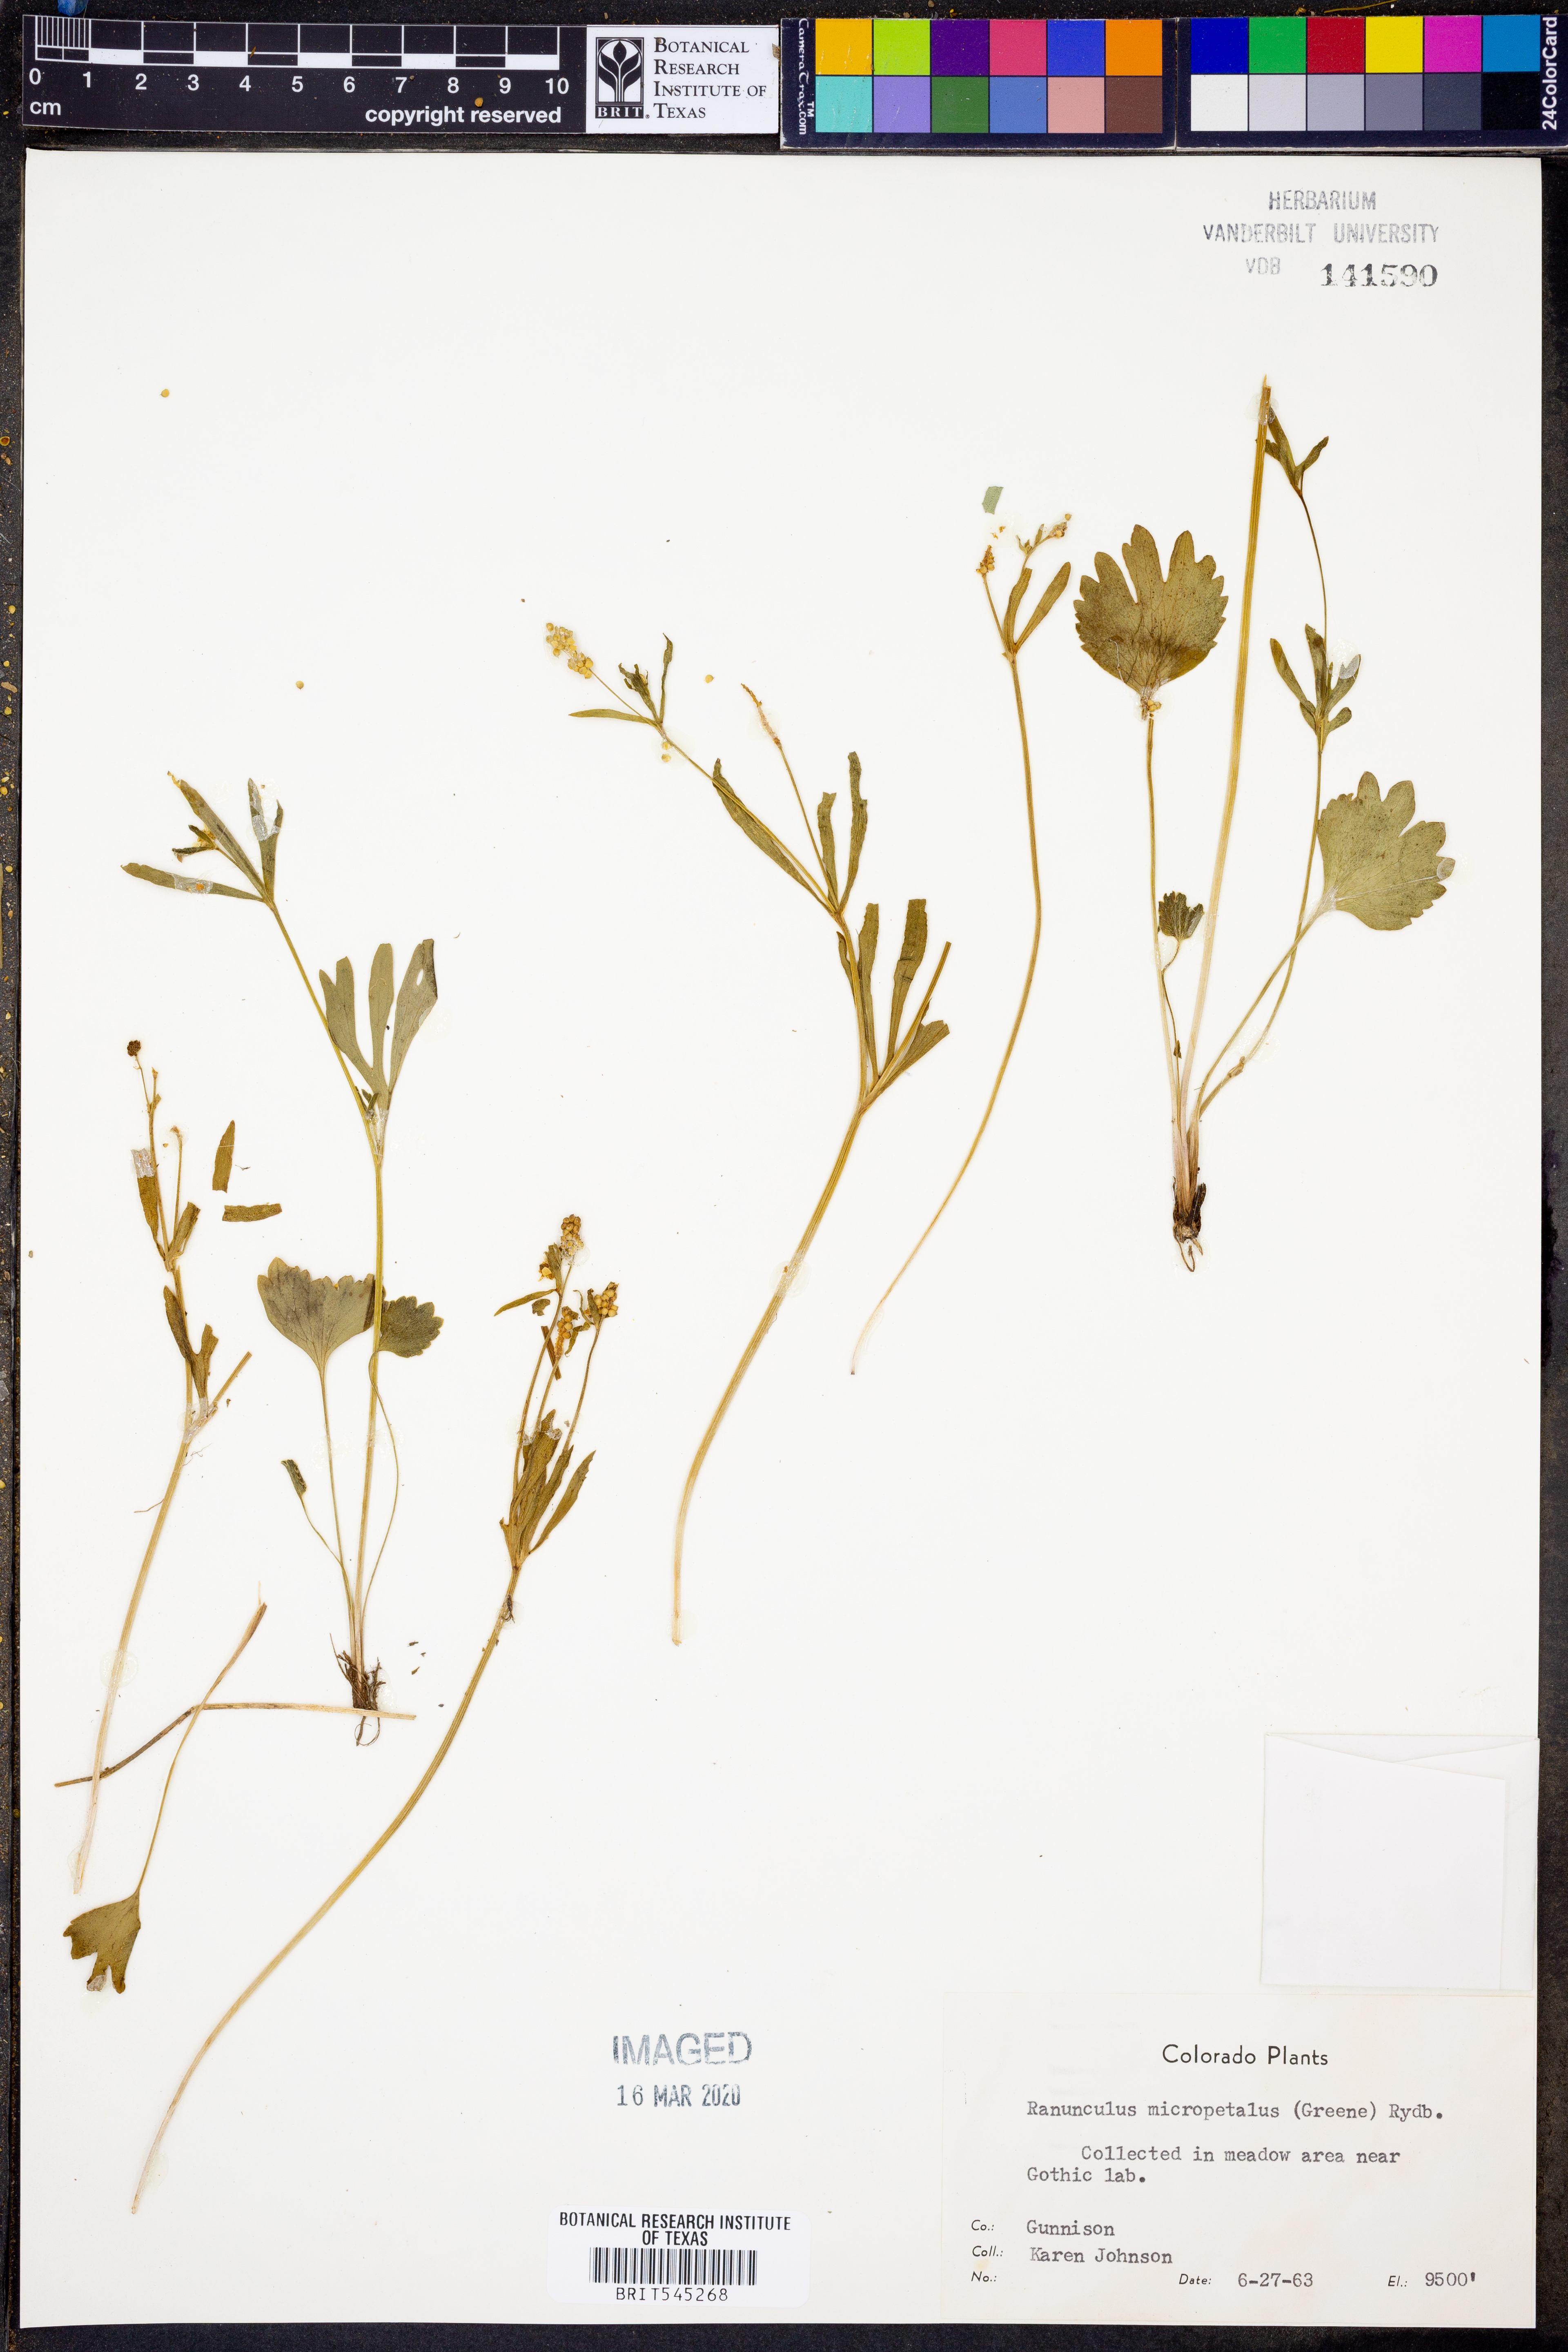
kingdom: Plantae
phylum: Tracheophyta
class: Magnoliopsida
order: Ranunculales
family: Ranunculaceae
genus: Ranunculus
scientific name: Ranunculus inamoenus
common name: Graceful buttercup
